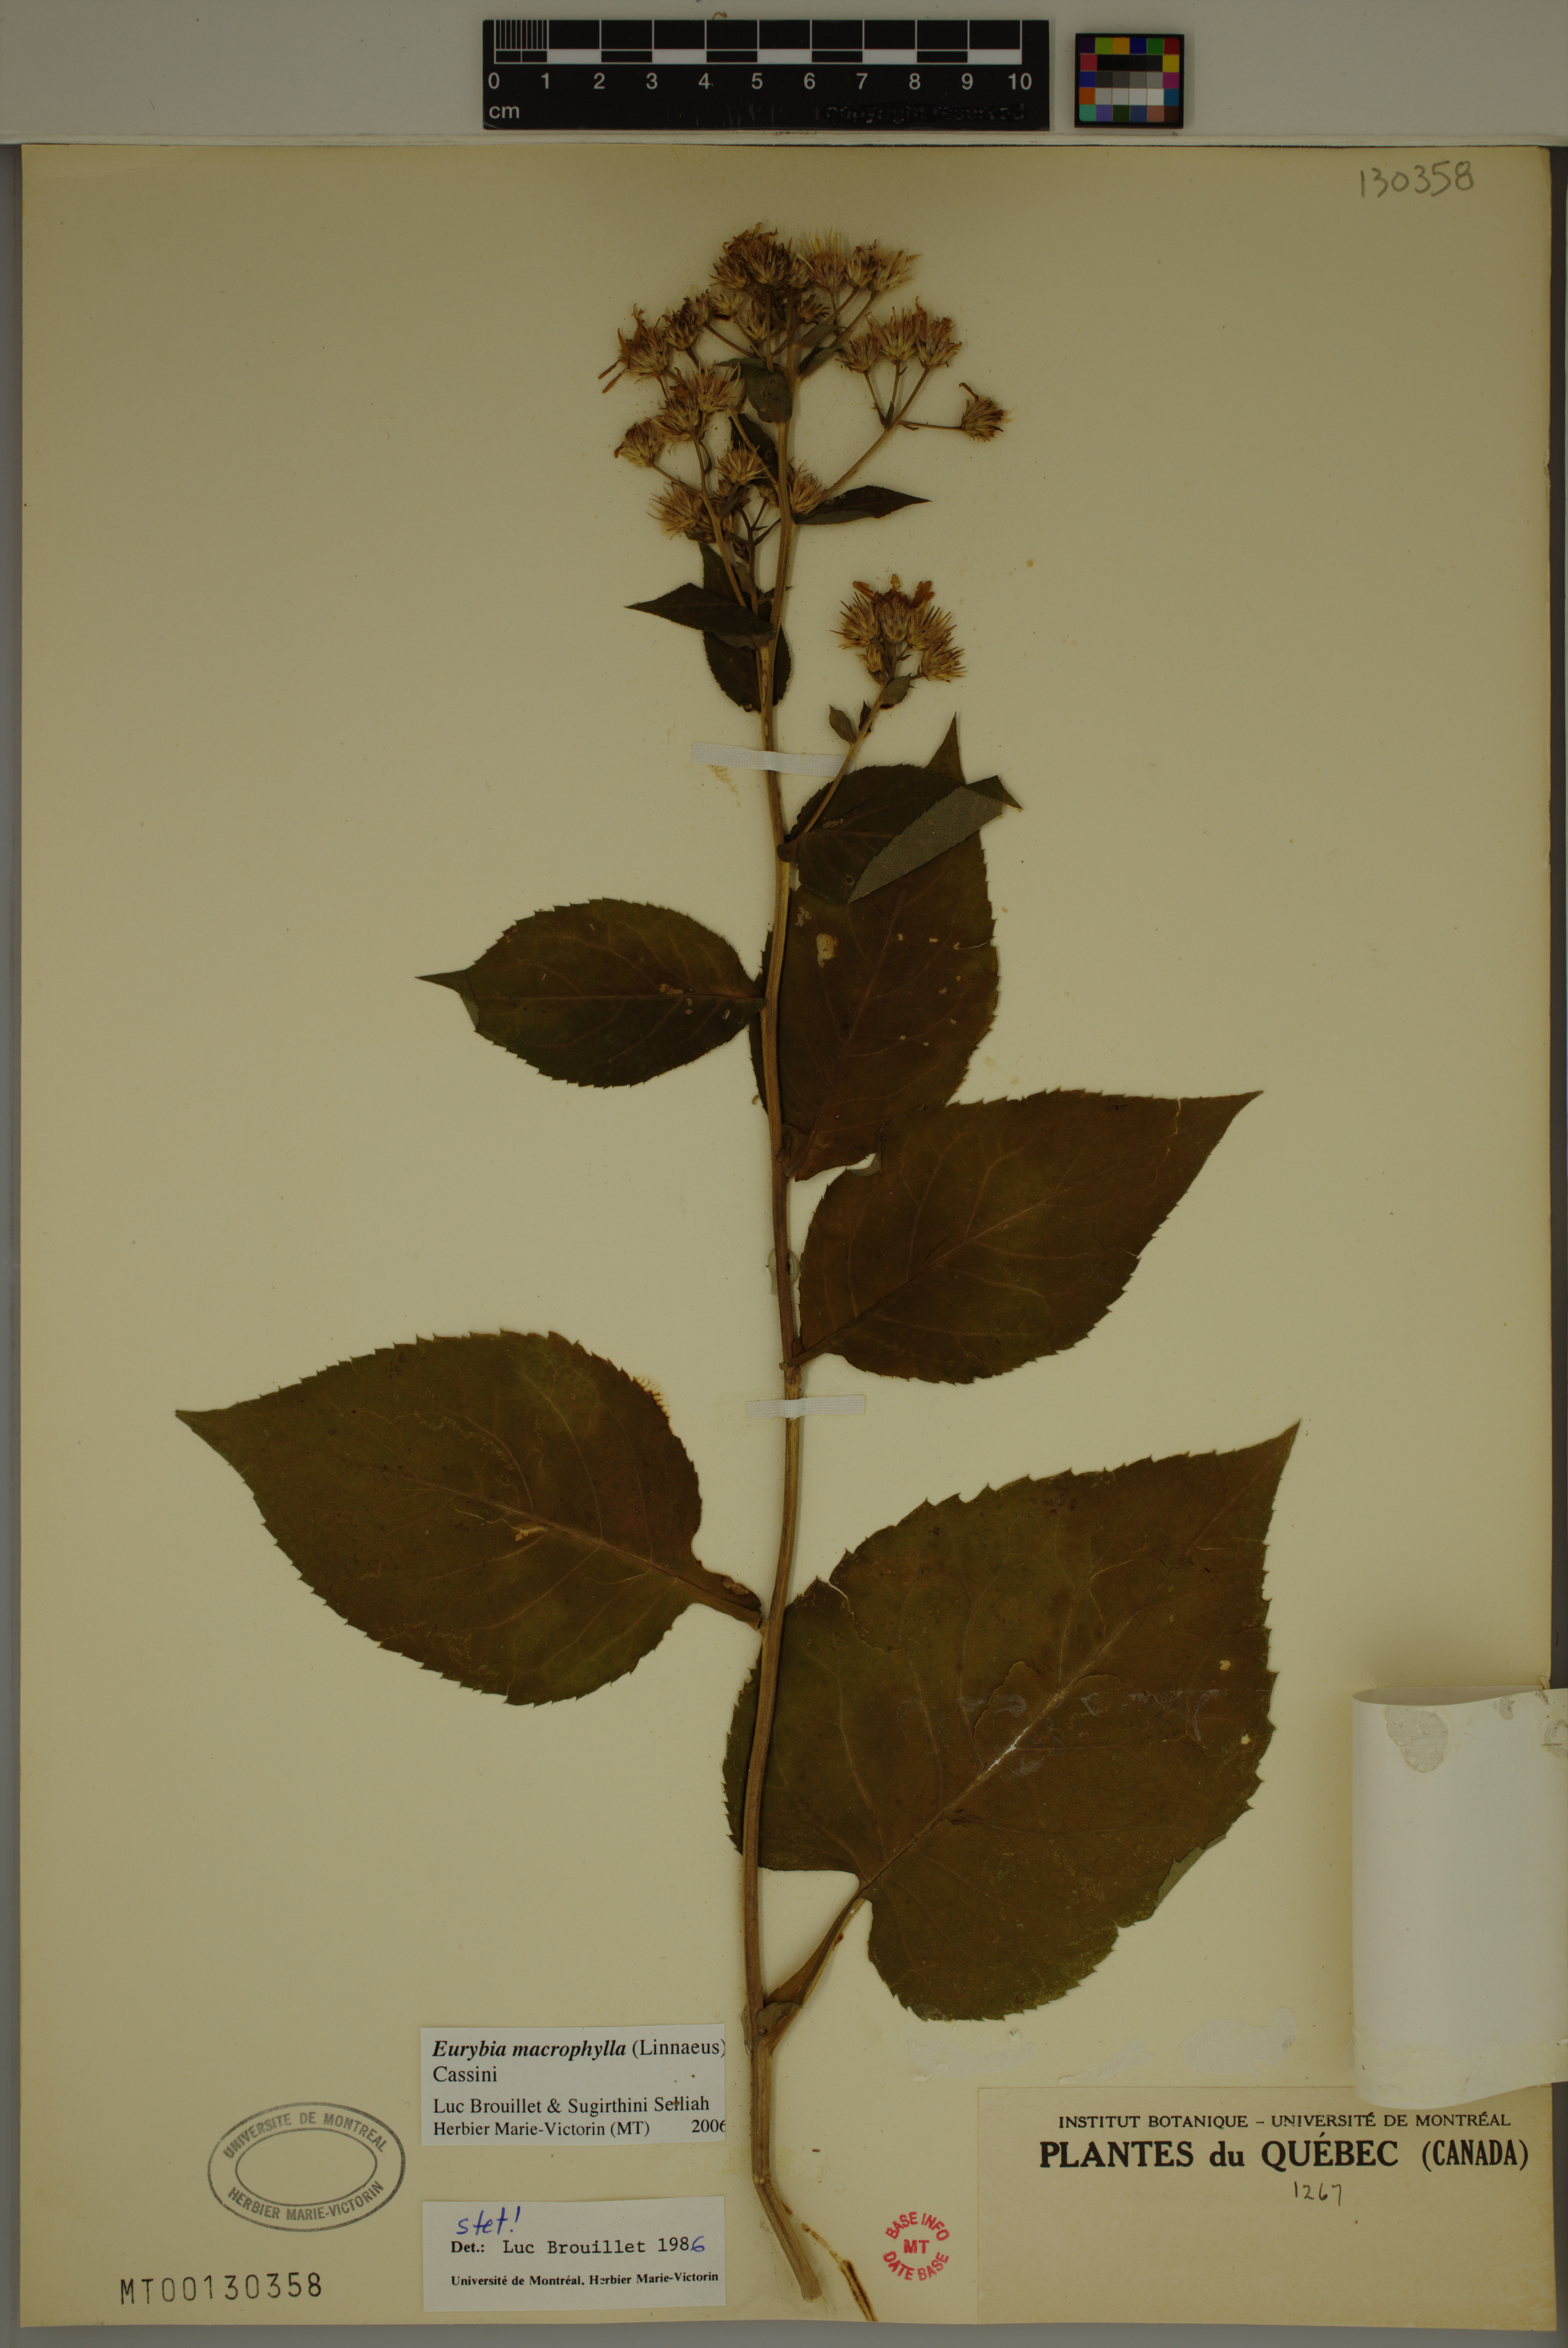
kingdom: Plantae
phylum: Tracheophyta
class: Magnoliopsida
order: Asterales
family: Asteraceae
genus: Eurybia
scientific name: Eurybia macrophylla
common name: Big-leaved aster
